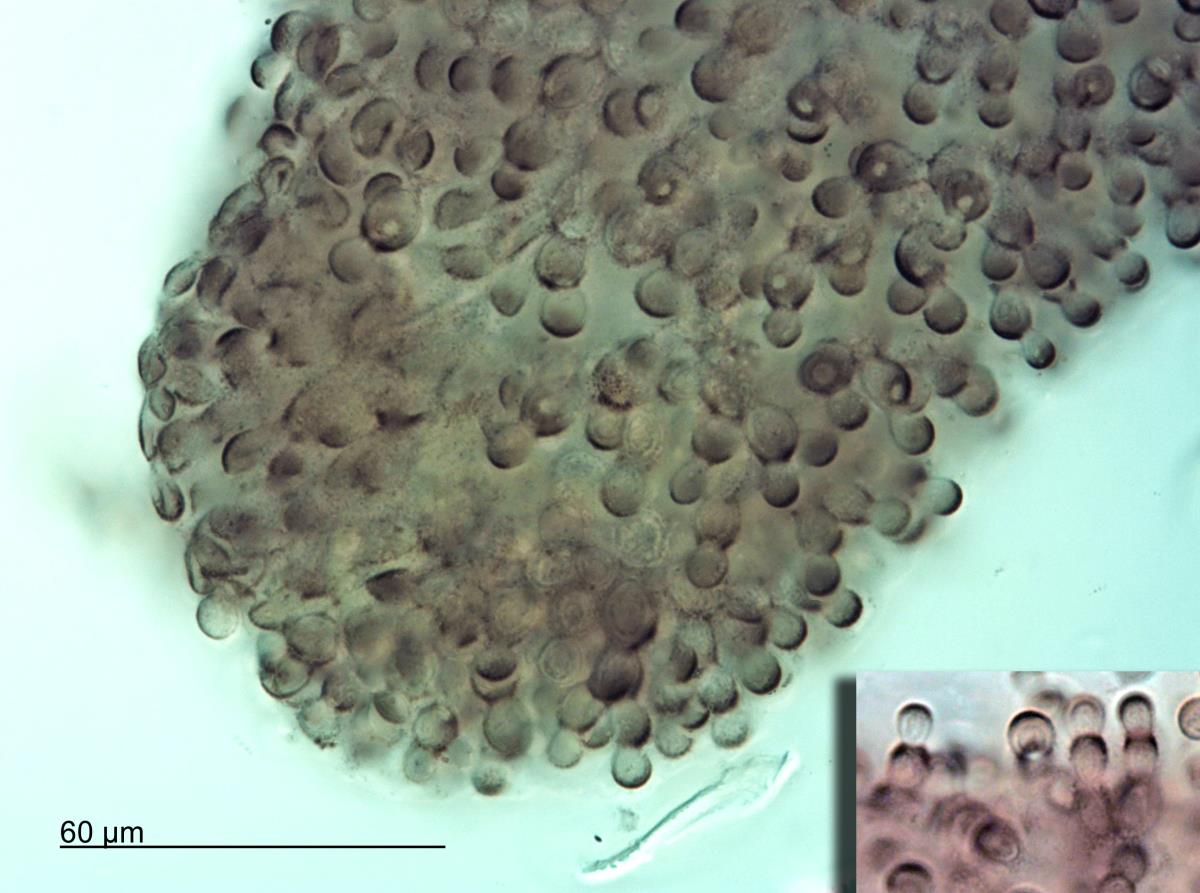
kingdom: Fungi
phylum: Ascomycota
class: Dothideomycetes
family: Seuratiaceae
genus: Atichia
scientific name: Atichia glomerulosa
